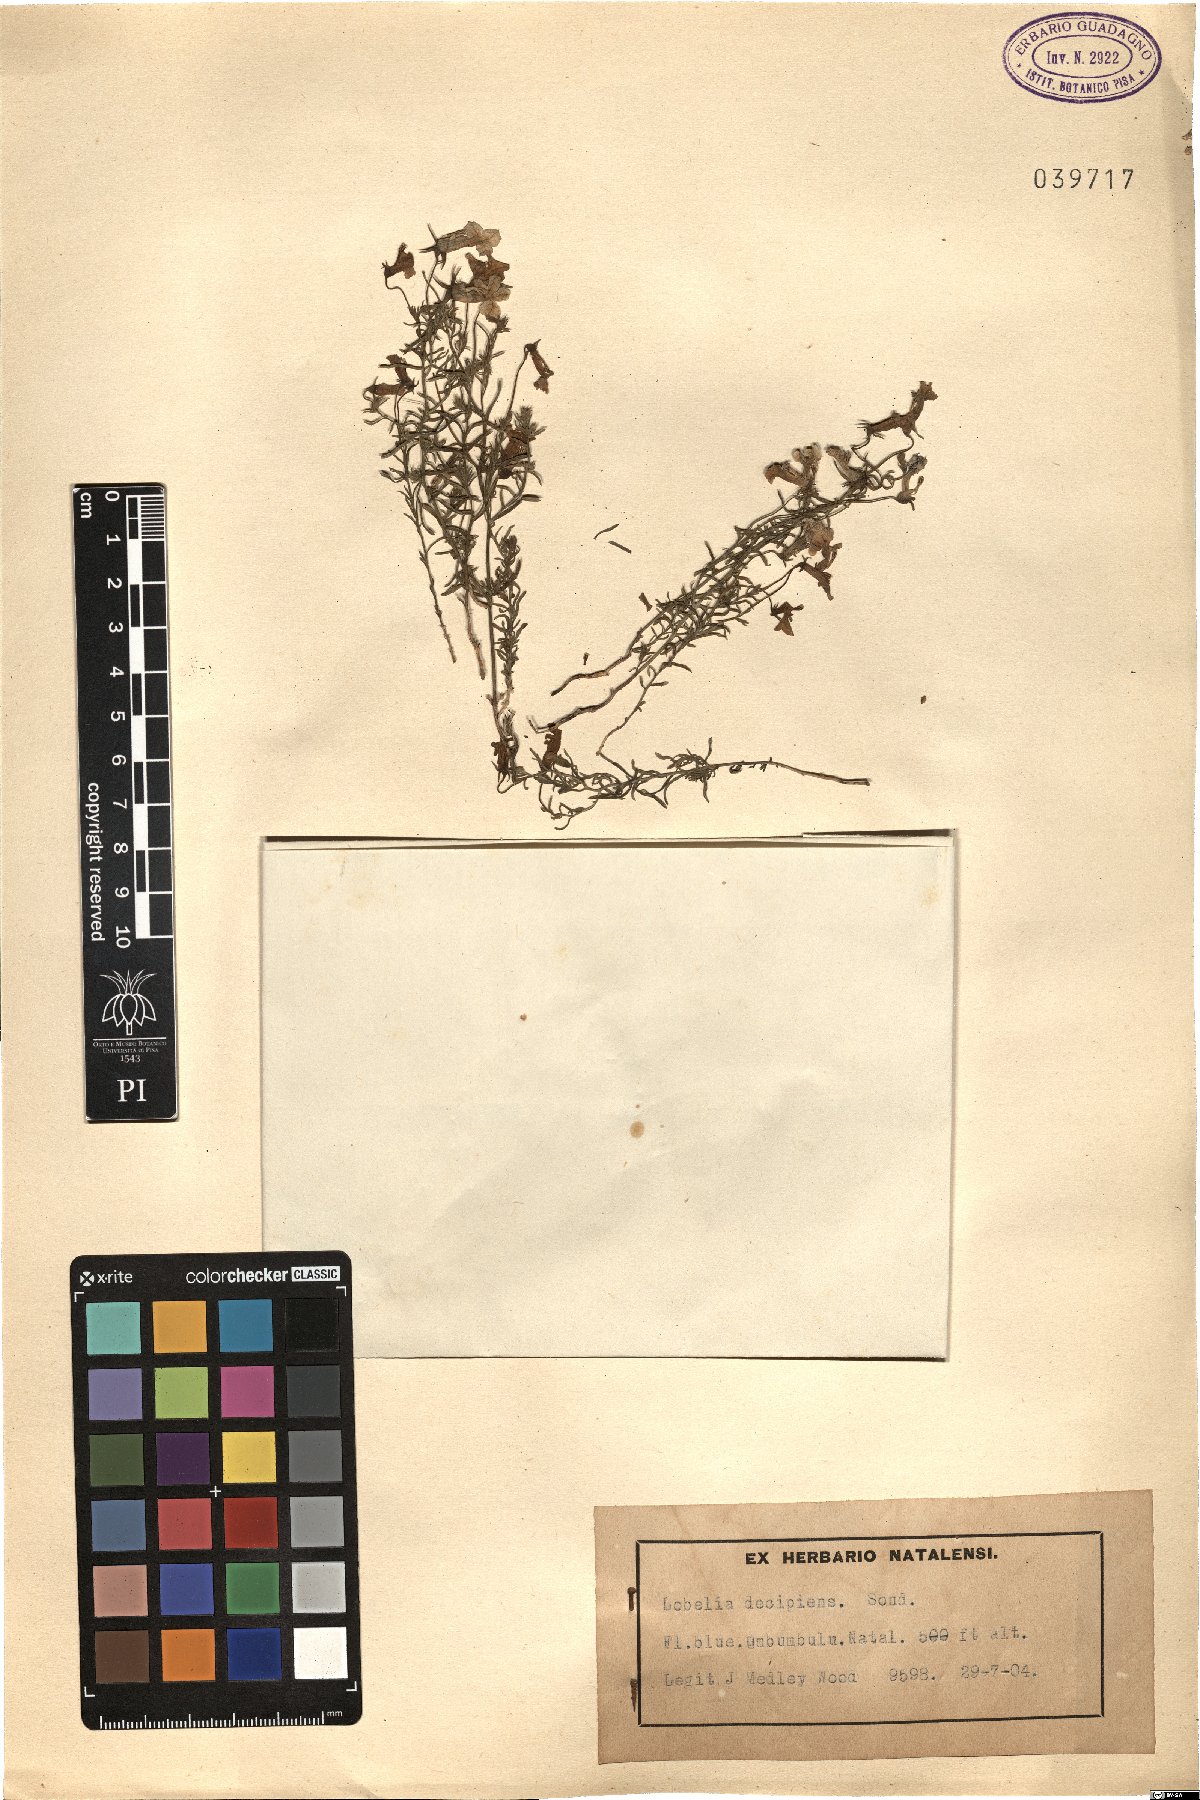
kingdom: Plantae
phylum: Tracheophyta
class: Magnoliopsida
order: Asterales
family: Campanulaceae
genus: Monopsis
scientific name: Monopsis decipiens
